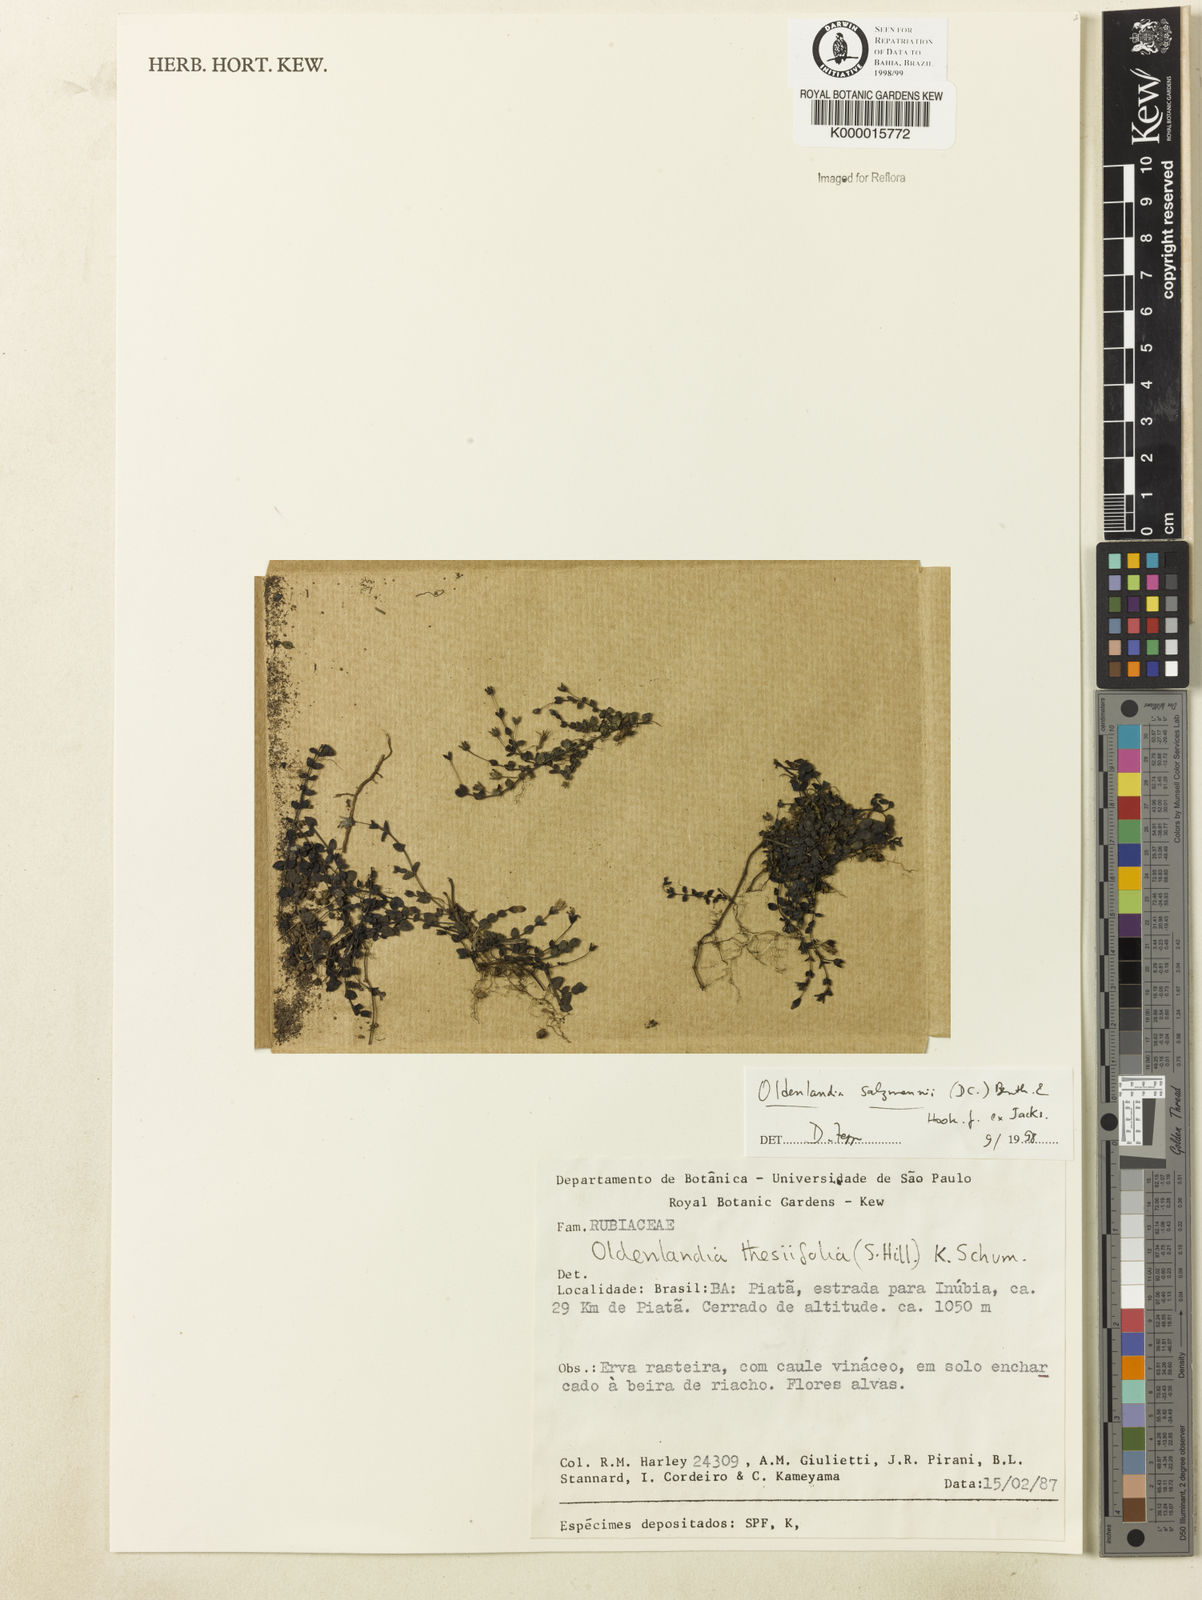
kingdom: Plantae
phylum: Tracheophyta
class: Magnoliopsida
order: Gentianales
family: Rubiaceae
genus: Oldenlandia
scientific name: Oldenlandia salzmannii
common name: Salzmann's mille graines
